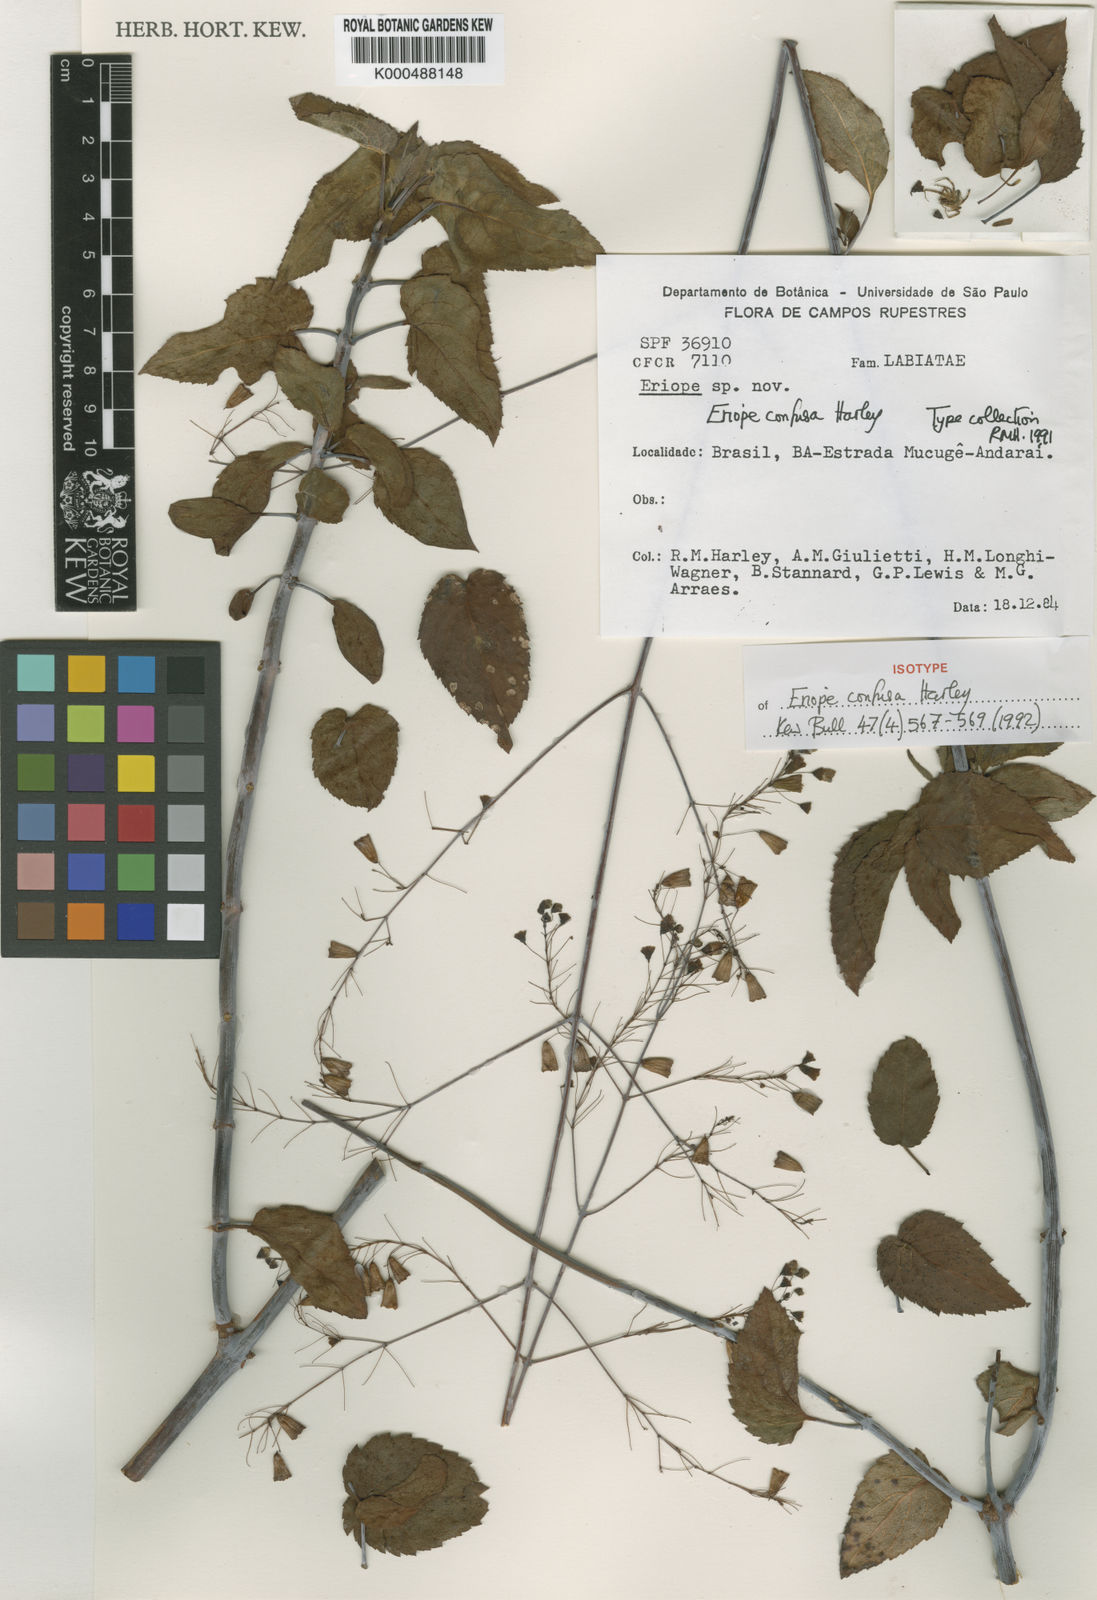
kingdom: Plantae
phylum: Tracheophyta
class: Magnoliopsida
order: Lamiales
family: Lamiaceae
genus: Eriope
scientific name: Eriope confusa
